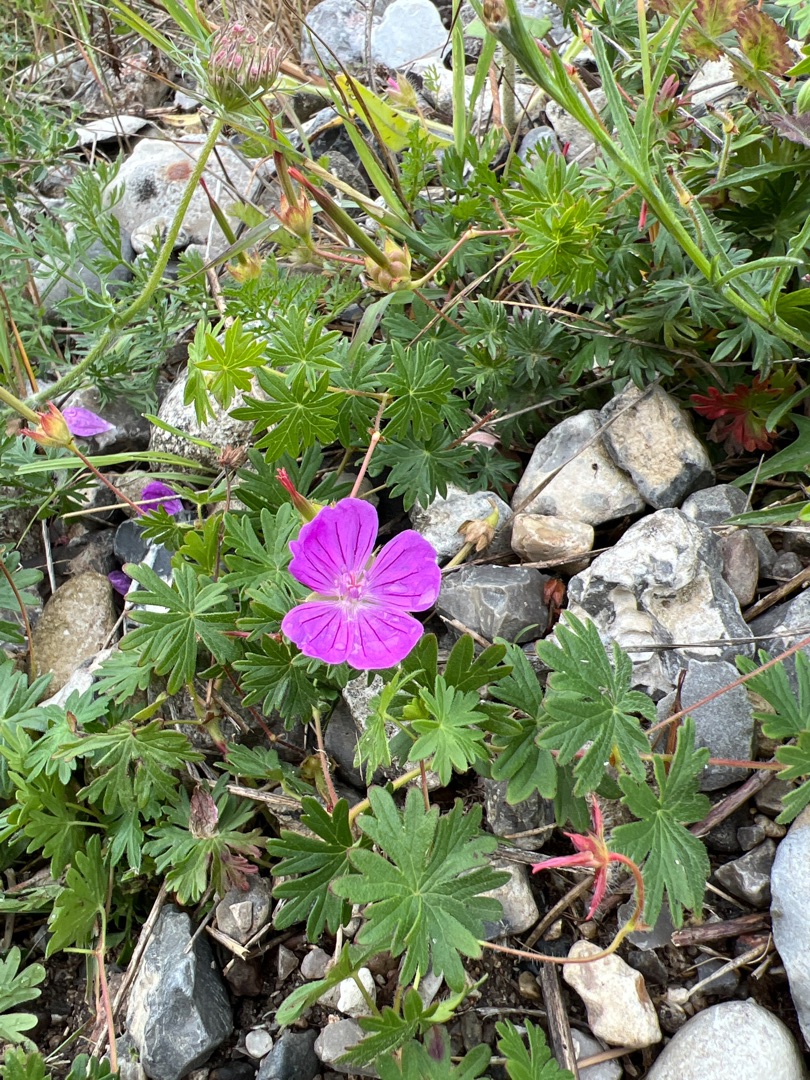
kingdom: Plantae
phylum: Tracheophyta
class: Magnoliopsida
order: Geraniales
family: Geraniaceae
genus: Geranium
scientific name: Geranium sanguineum
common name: Blodrød storkenæb
